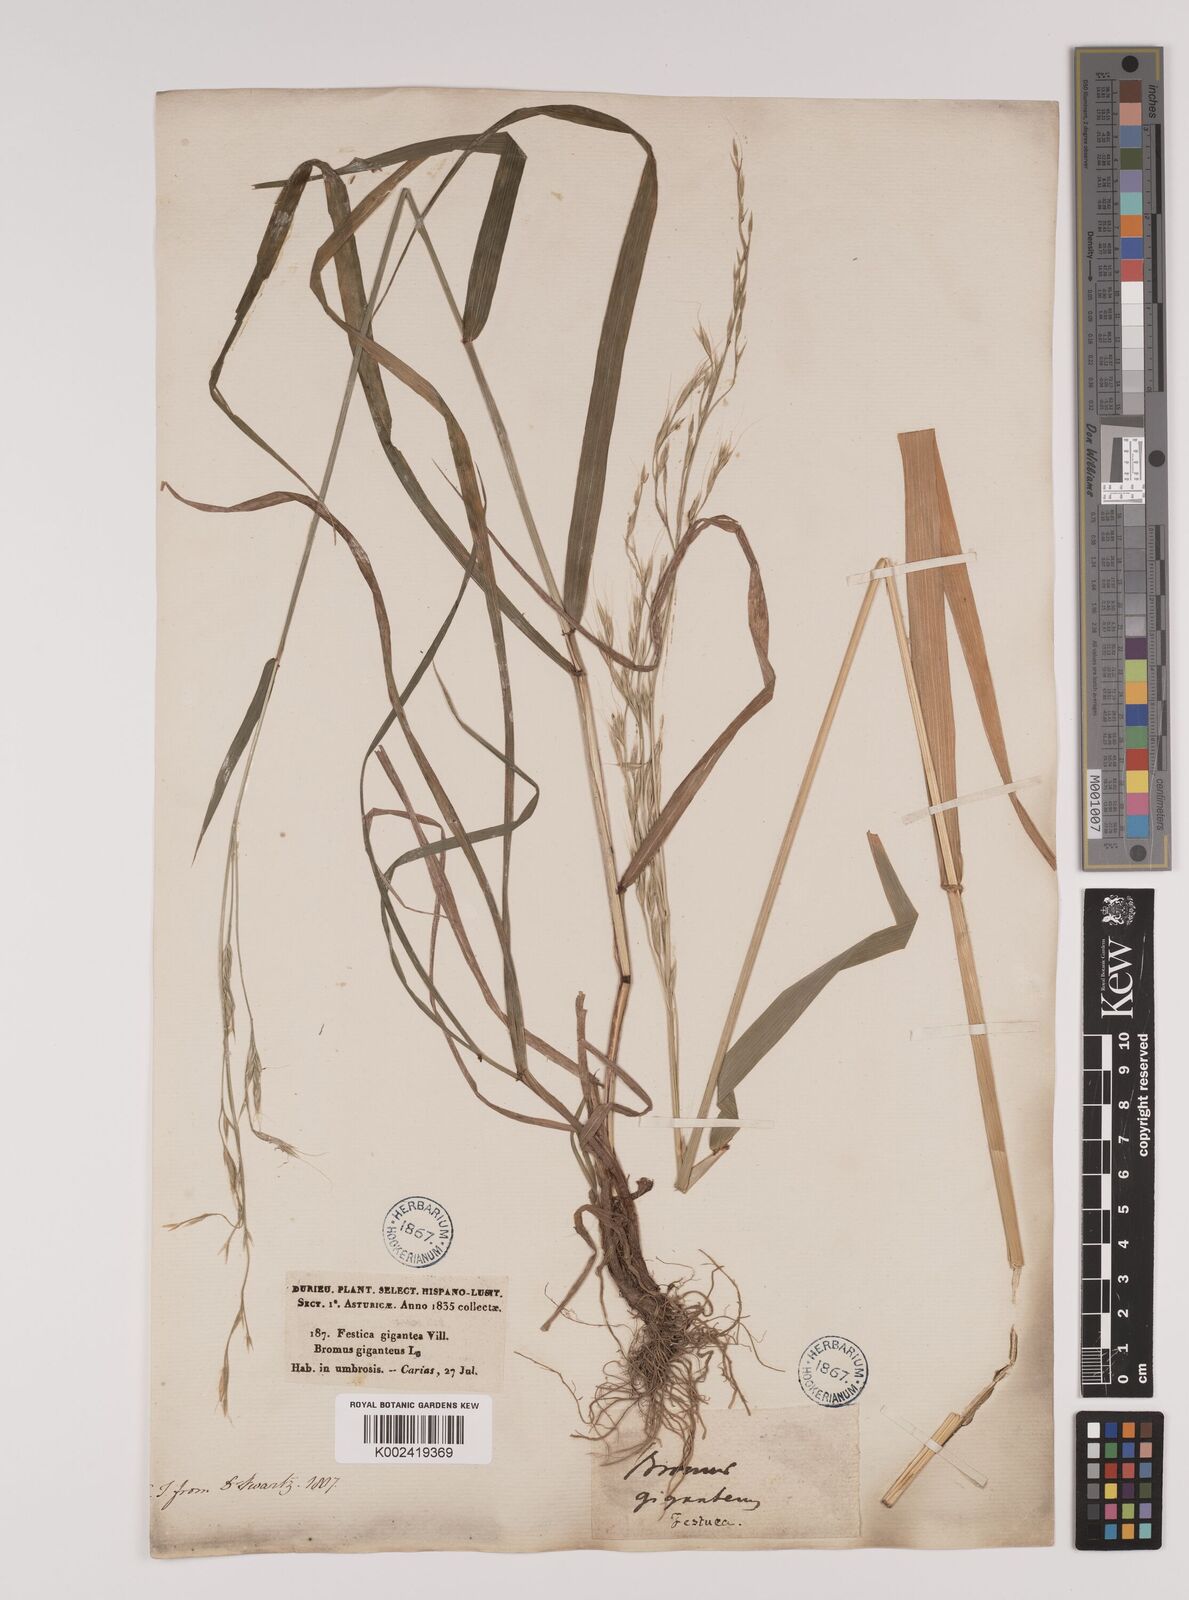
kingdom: Plantae
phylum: Tracheophyta
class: Liliopsida
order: Poales
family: Poaceae
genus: Lolium
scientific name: Lolium giganteum
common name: Giant fescue
